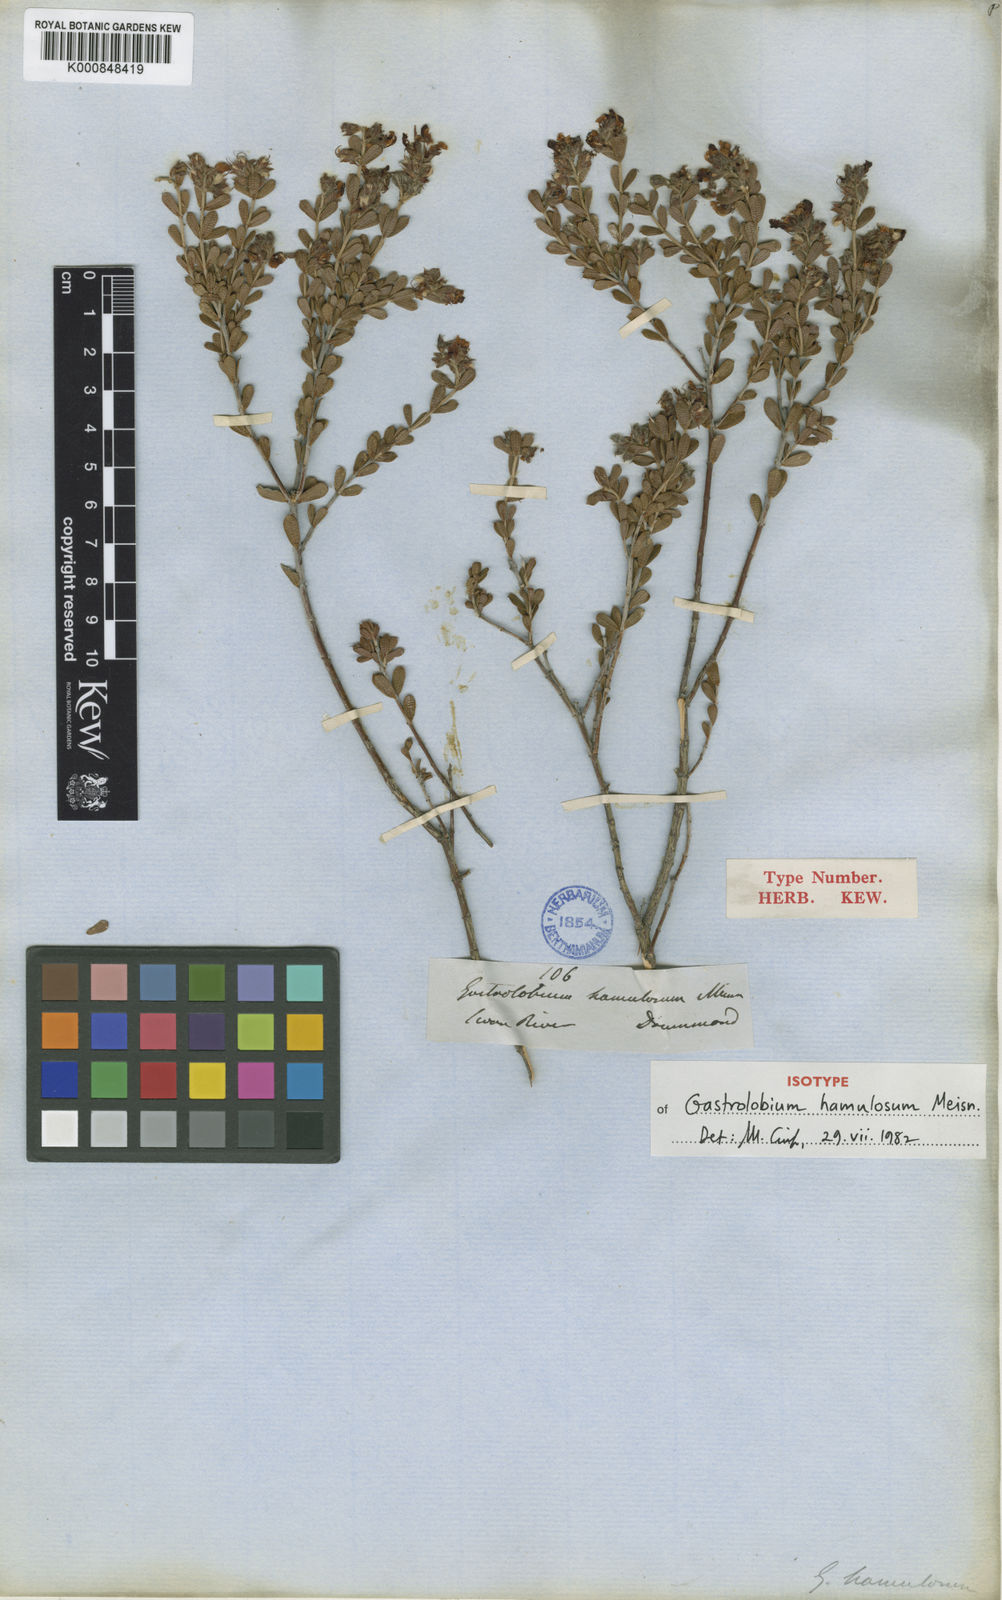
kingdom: Plantae
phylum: Tracheophyta
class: Magnoliopsida
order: Fabales
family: Fabaceae
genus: Gastrolobium
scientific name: Gastrolobium hamulosum
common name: Hook-point poisonbush
